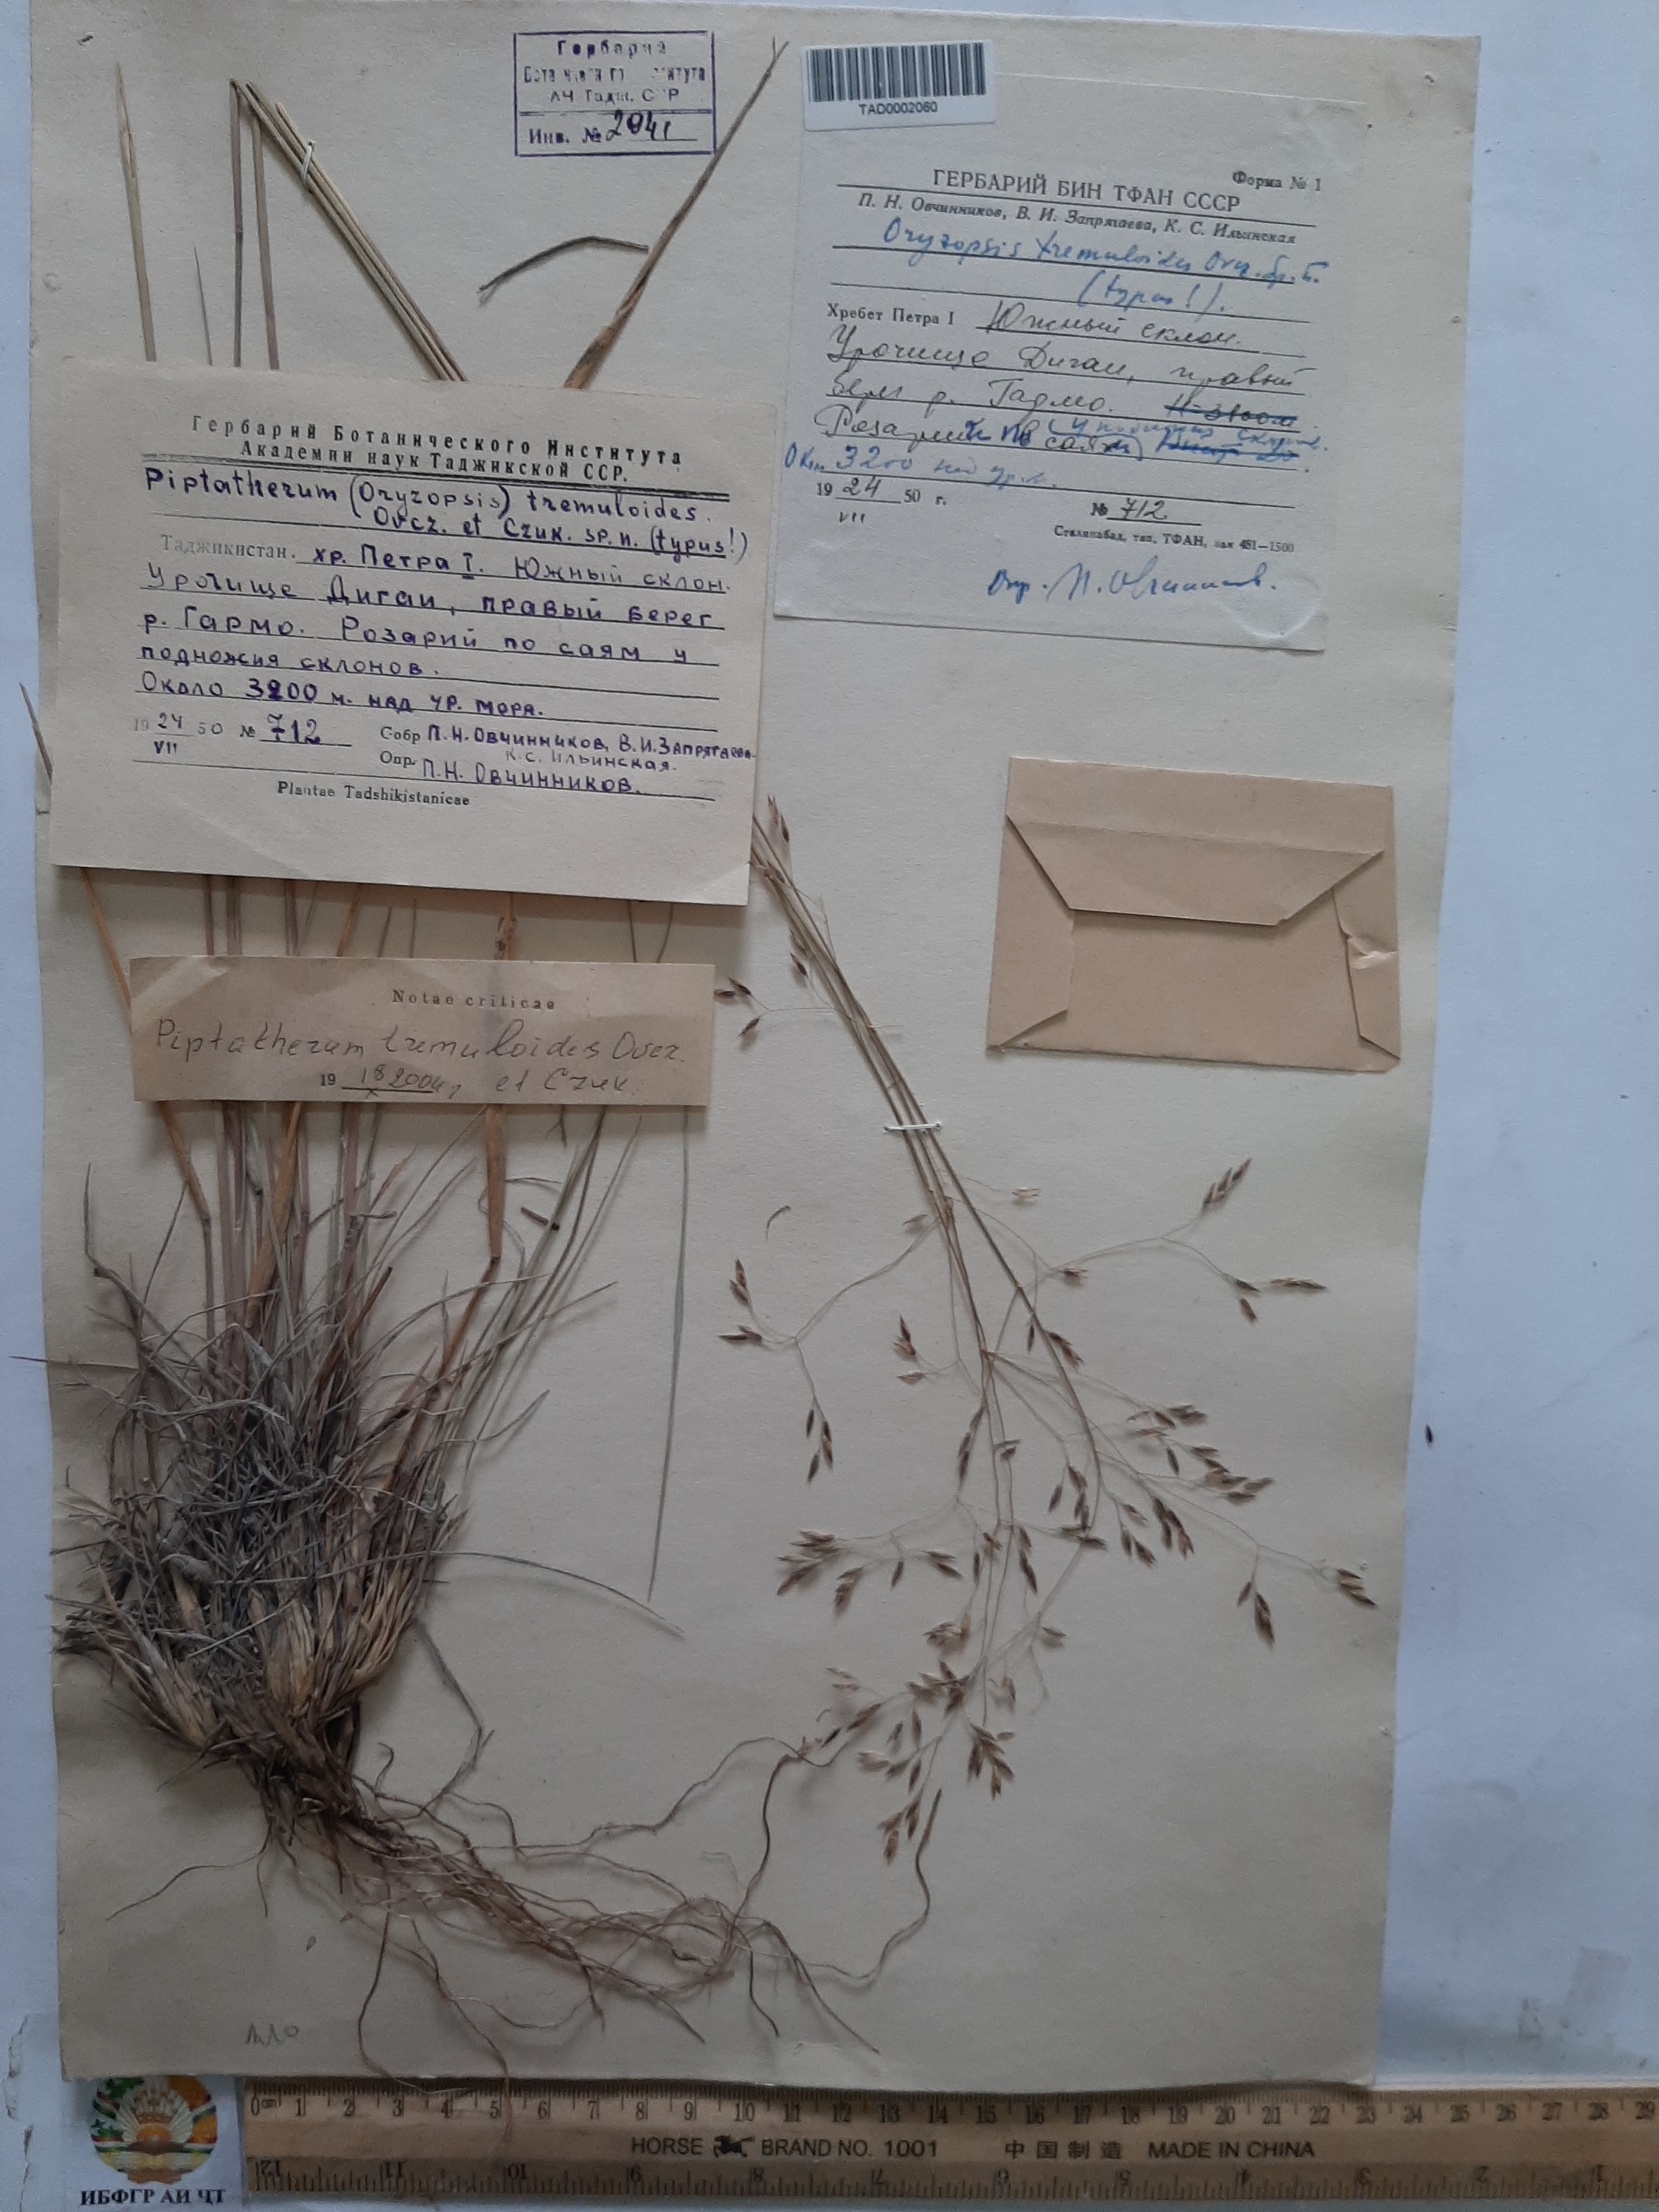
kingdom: Plantae
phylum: Tracheophyta
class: Liliopsida
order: Poales
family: Poaceae
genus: Piptatherum
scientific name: Piptatherum hilariae
